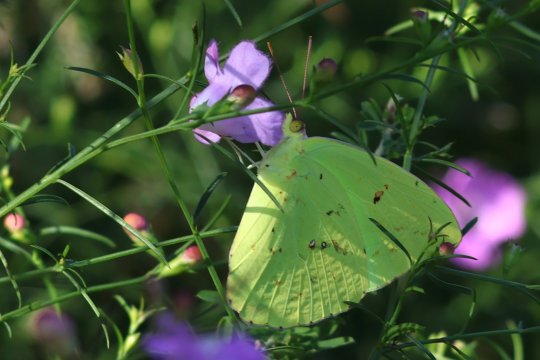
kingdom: Animalia
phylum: Arthropoda
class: Insecta
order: Lepidoptera
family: Pieridae
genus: Phoebis
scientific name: Phoebis sennae
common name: Cloudless Sulphur
